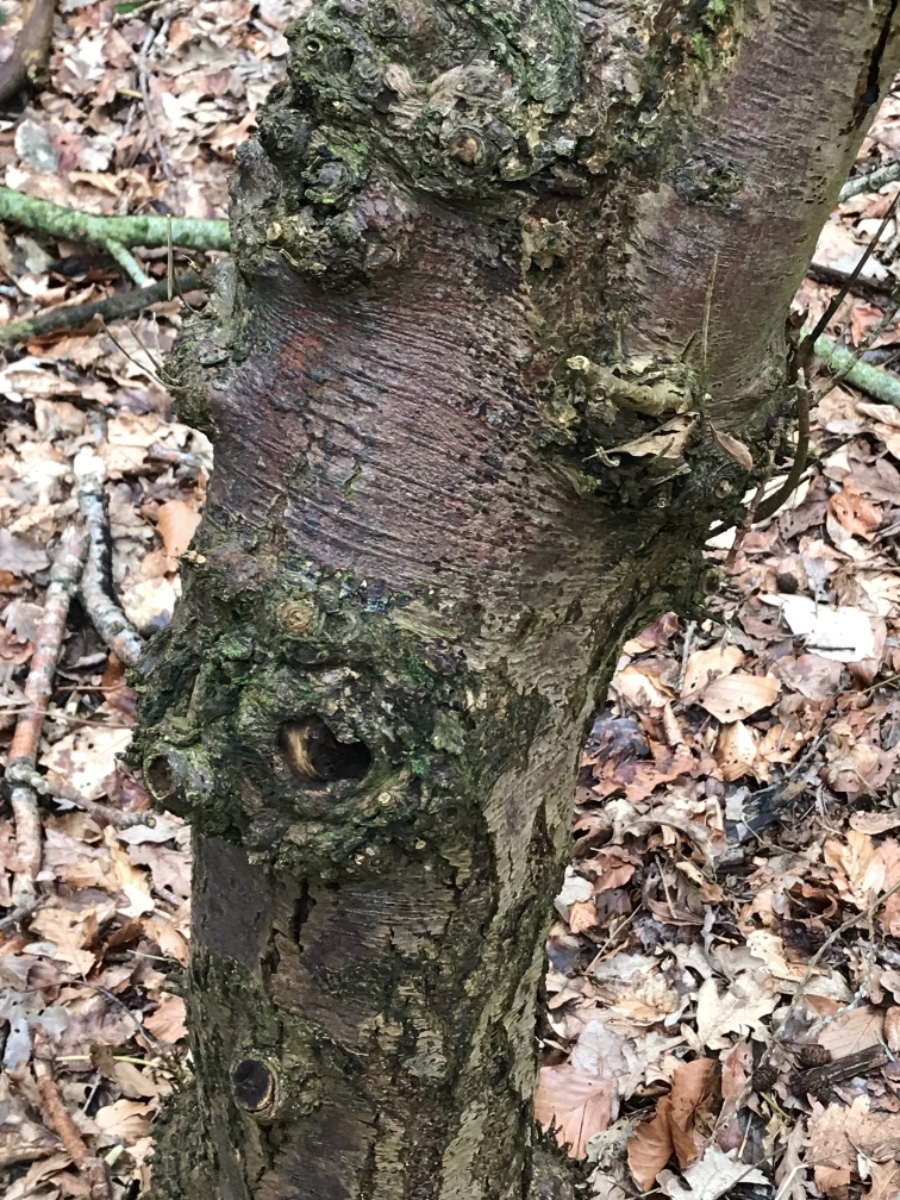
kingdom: Fungi
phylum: Basidiomycota
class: Agaricomycetes
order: Agaricales
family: Physalacriaceae
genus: Cylindrobasidium
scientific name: Cylindrobasidium evolvens
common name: sprækkehinde
